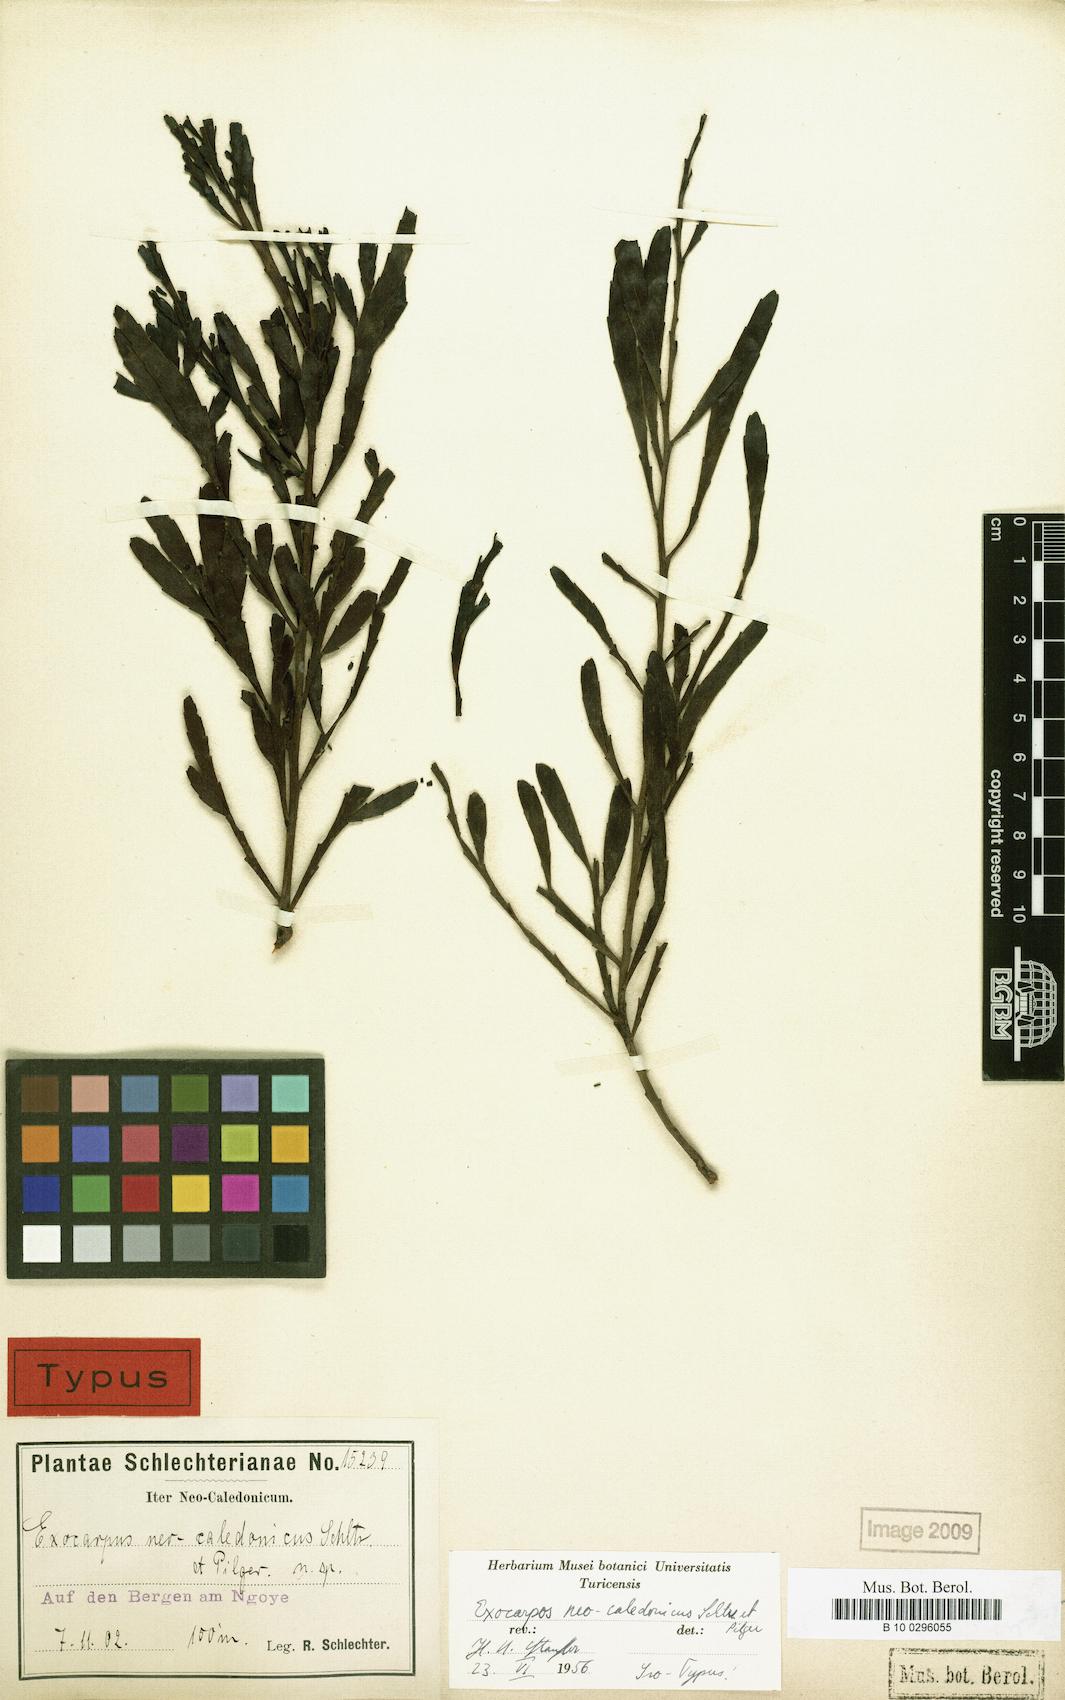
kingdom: Plantae
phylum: Tracheophyta
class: Magnoliopsida
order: Santalales
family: Santalaceae
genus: Exocarpos
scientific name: Exocarpos neocaledonicus
